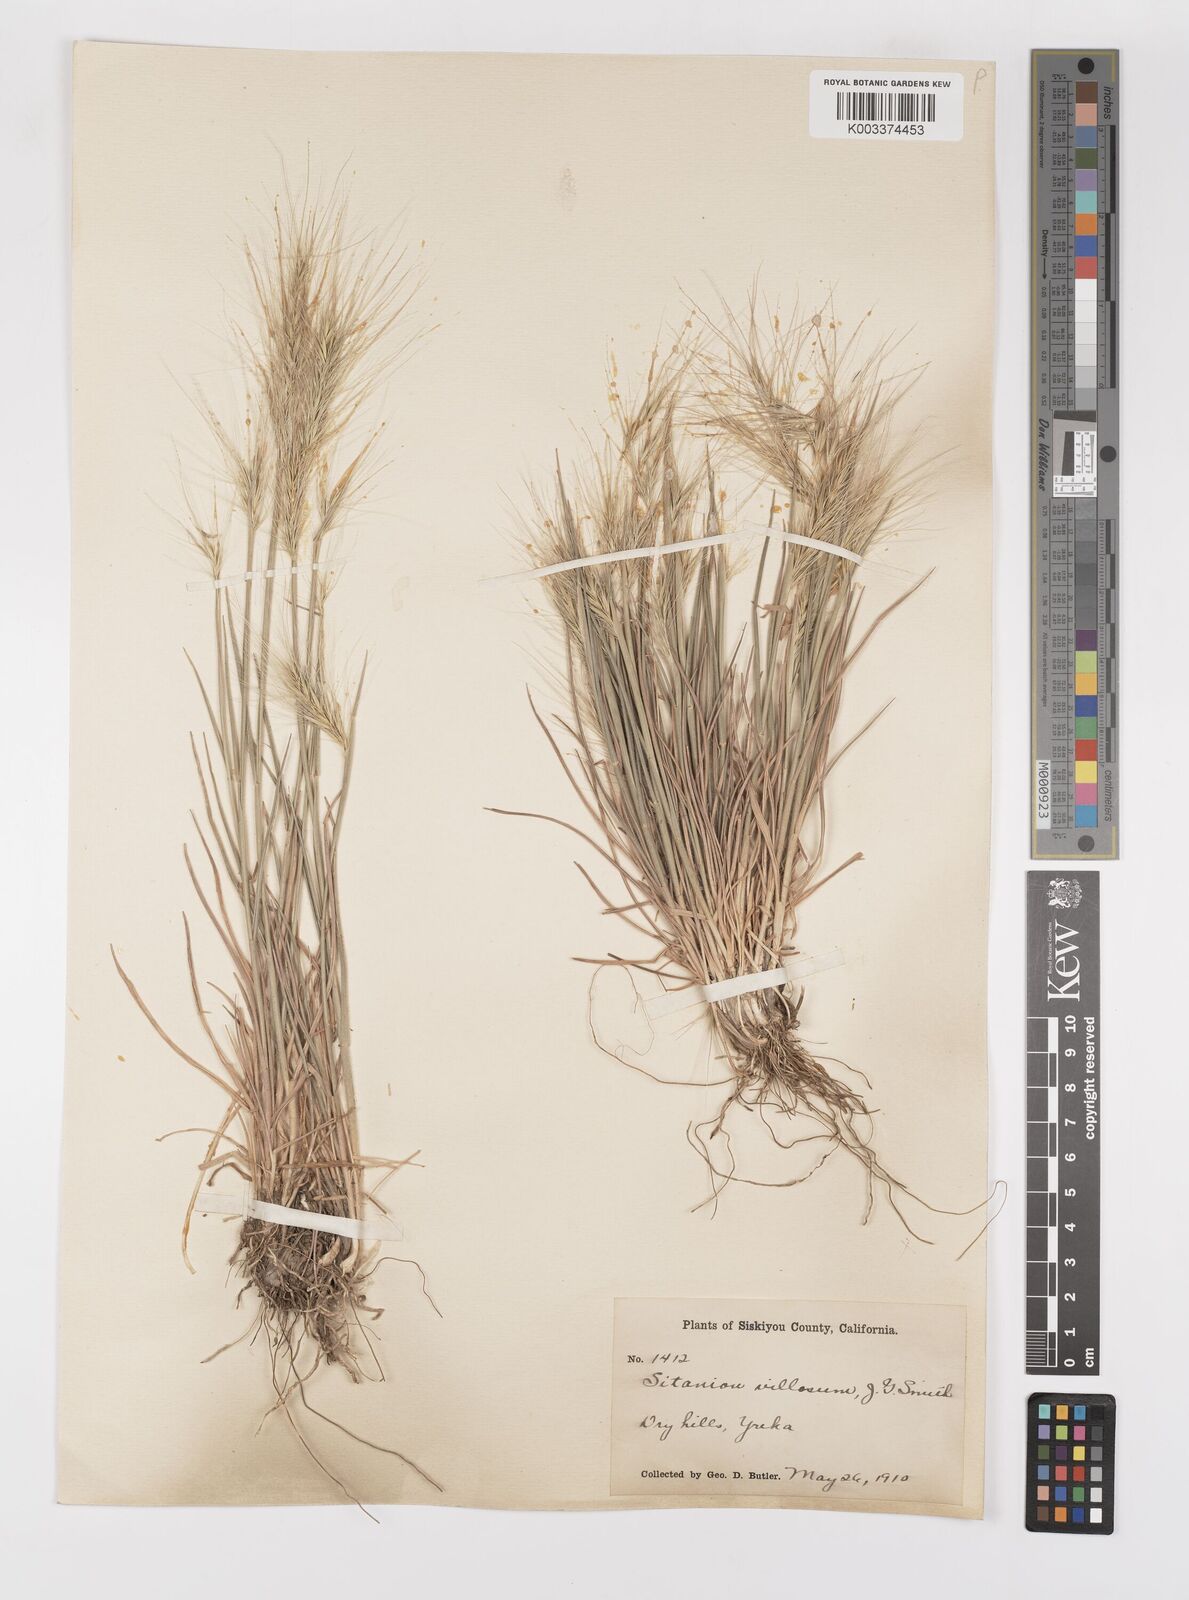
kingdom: Plantae
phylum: Tracheophyta
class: Liliopsida
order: Poales
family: Poaceae
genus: Elymus
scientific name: Elymus multisetus
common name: Big squirreltail
